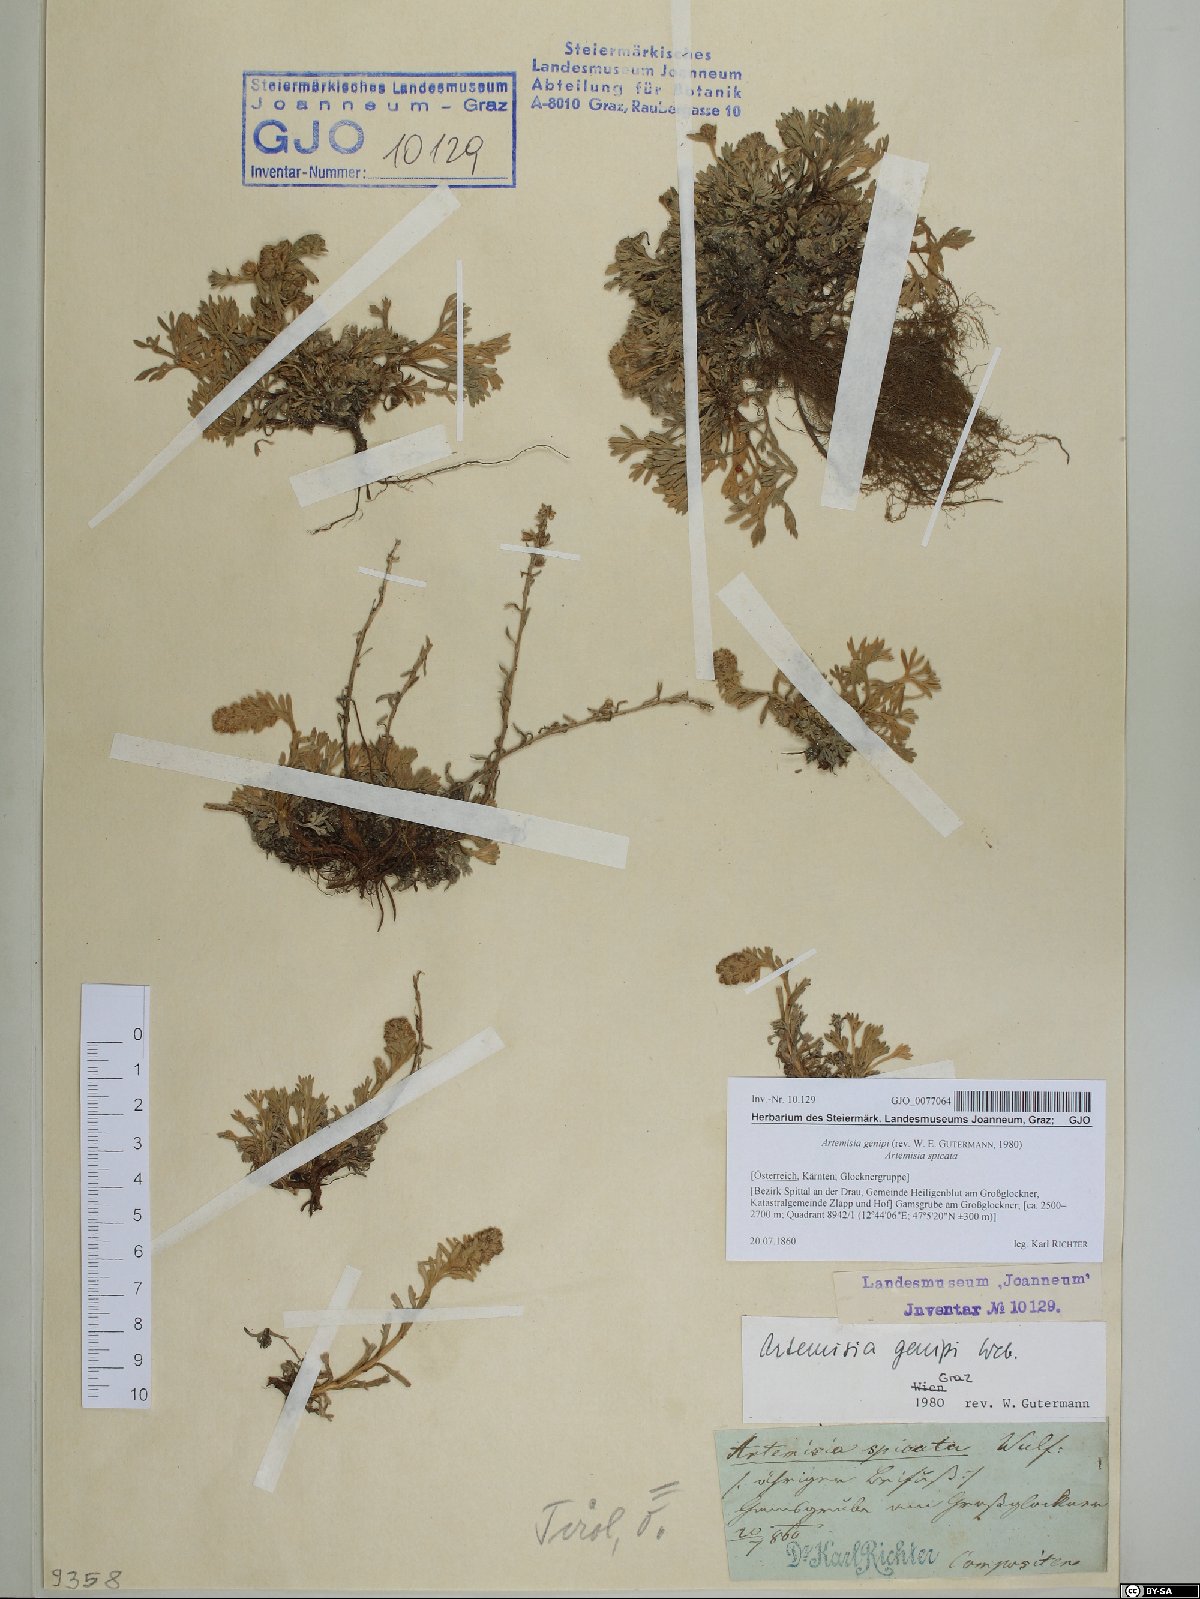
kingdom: Plantae
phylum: Tracheophyta
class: Magnoliopsida
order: Asterales
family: Asteraceae
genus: Artemisia
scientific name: Artemisia genipi
